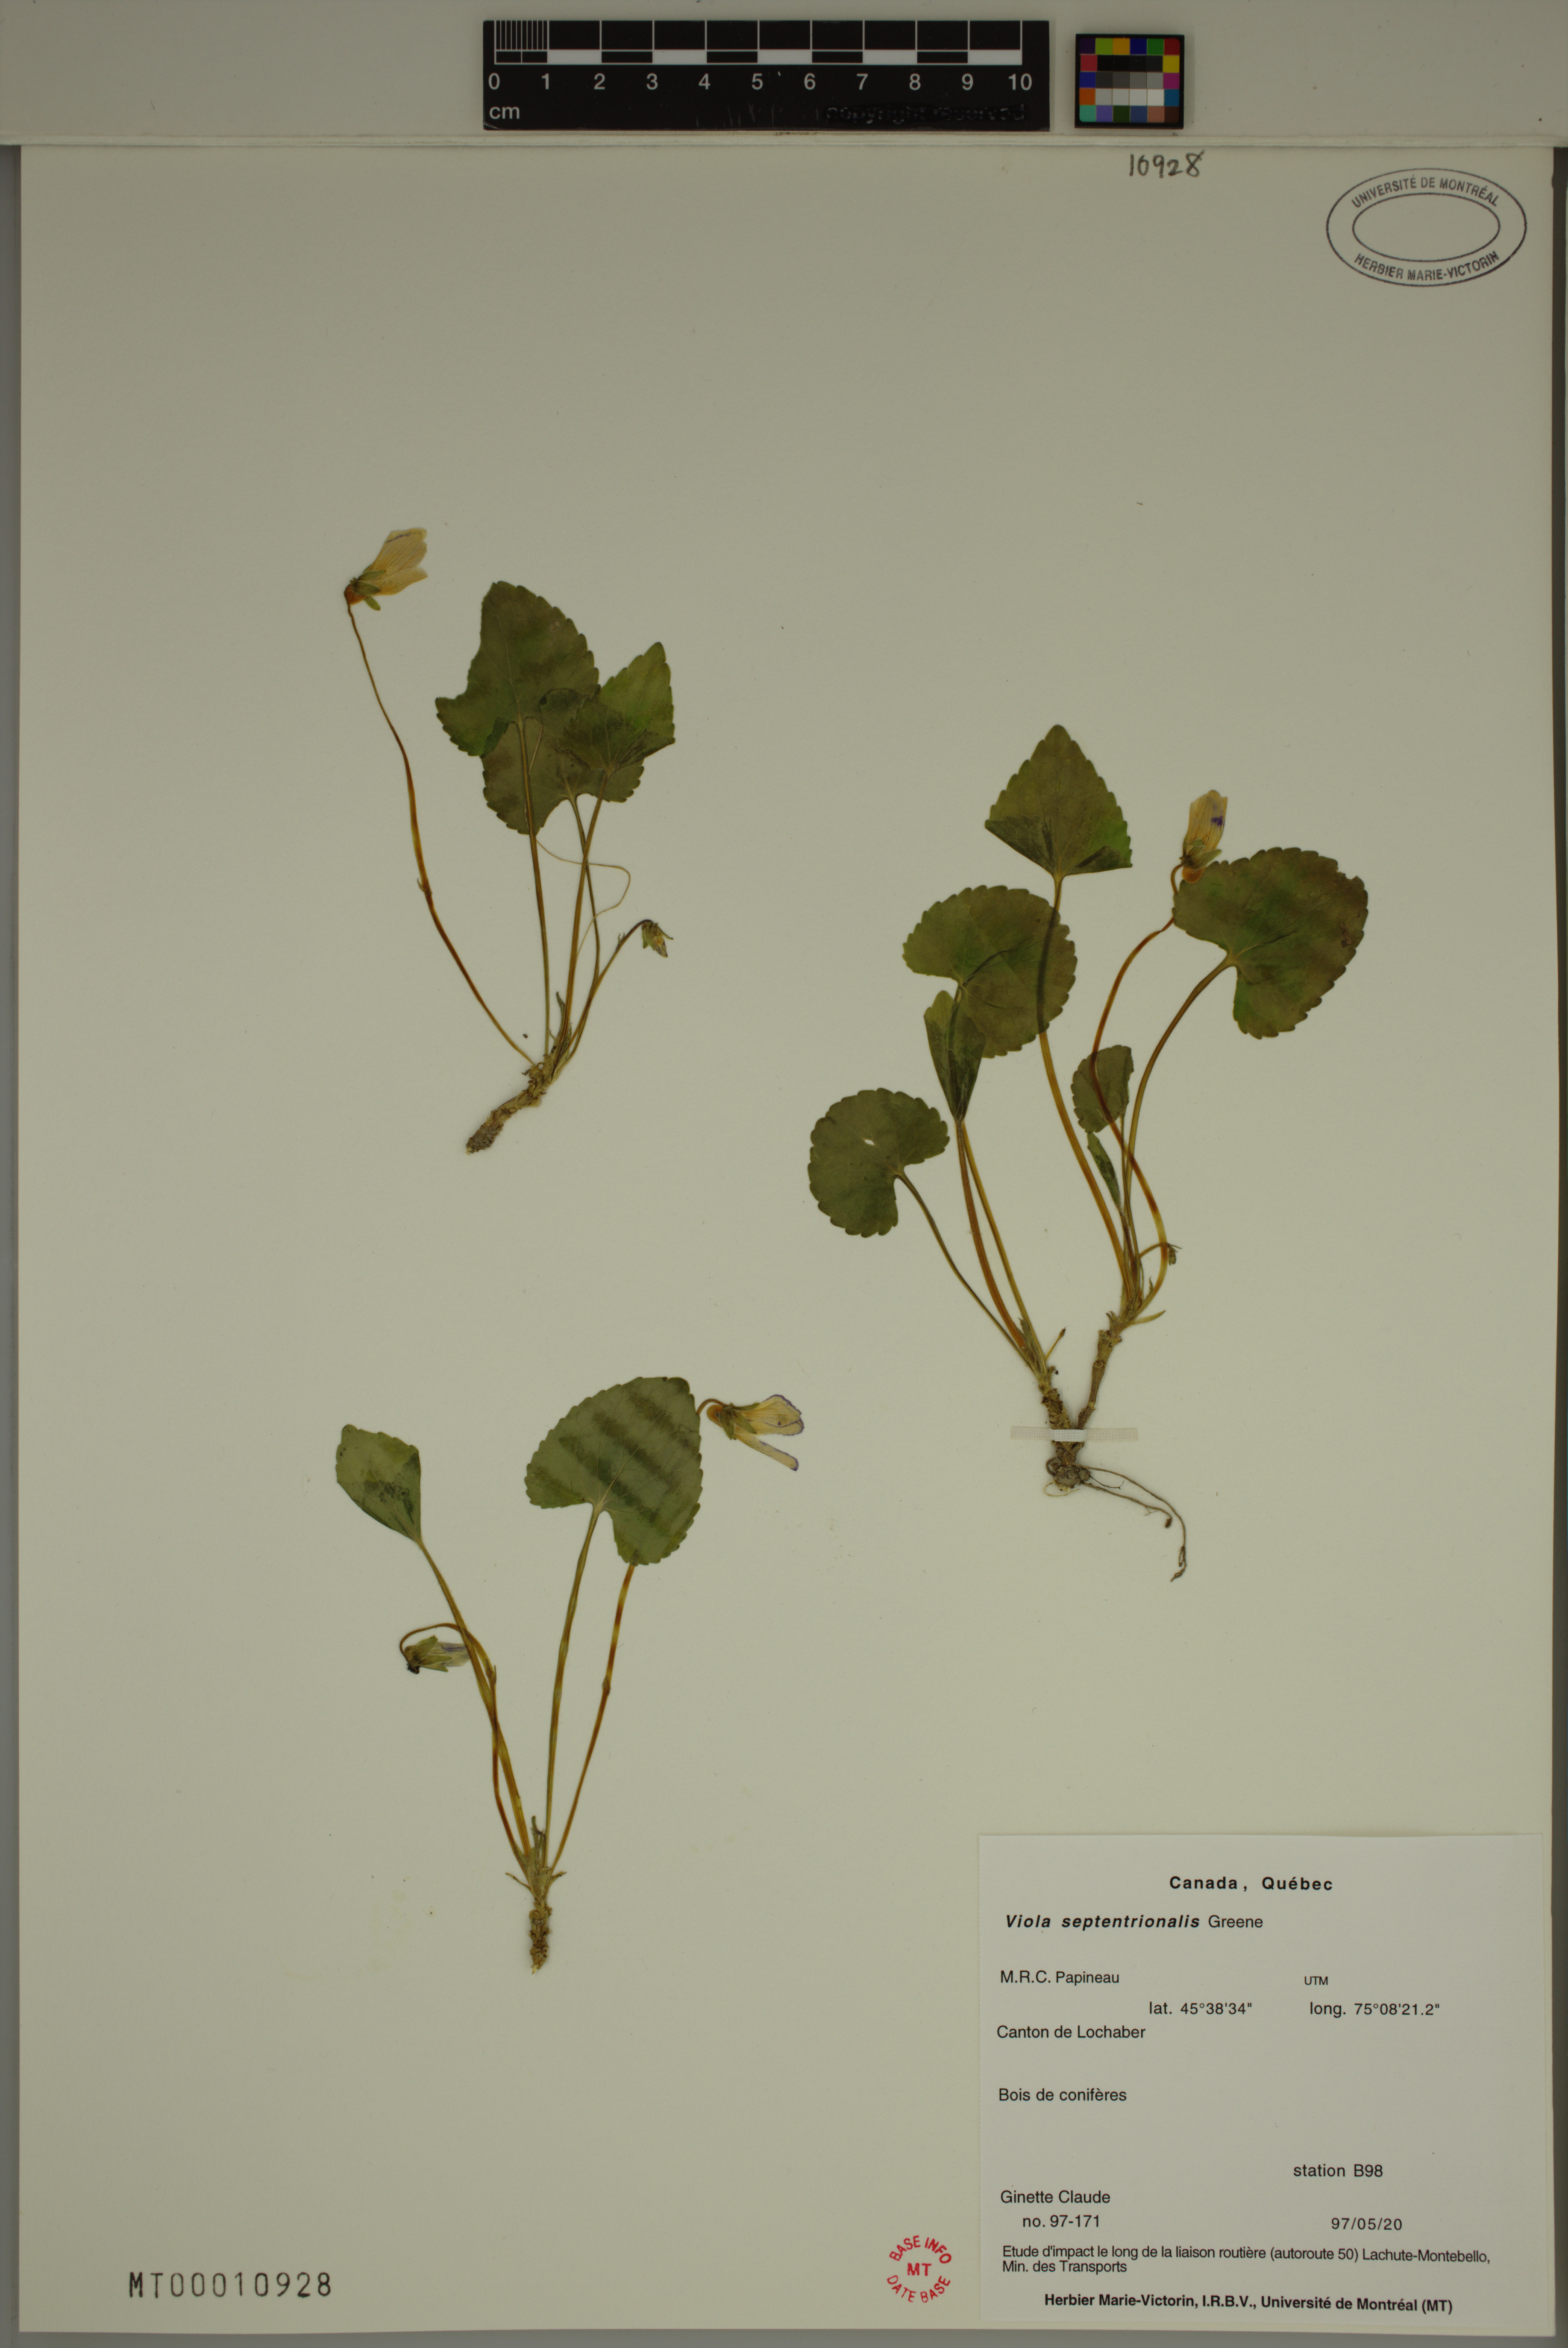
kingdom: Plantae
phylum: Tracheophyta
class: Magnoliopsida
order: Malpighiales
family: Violaceae
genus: Viola
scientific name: Viola sororia
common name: Dooryard violet
